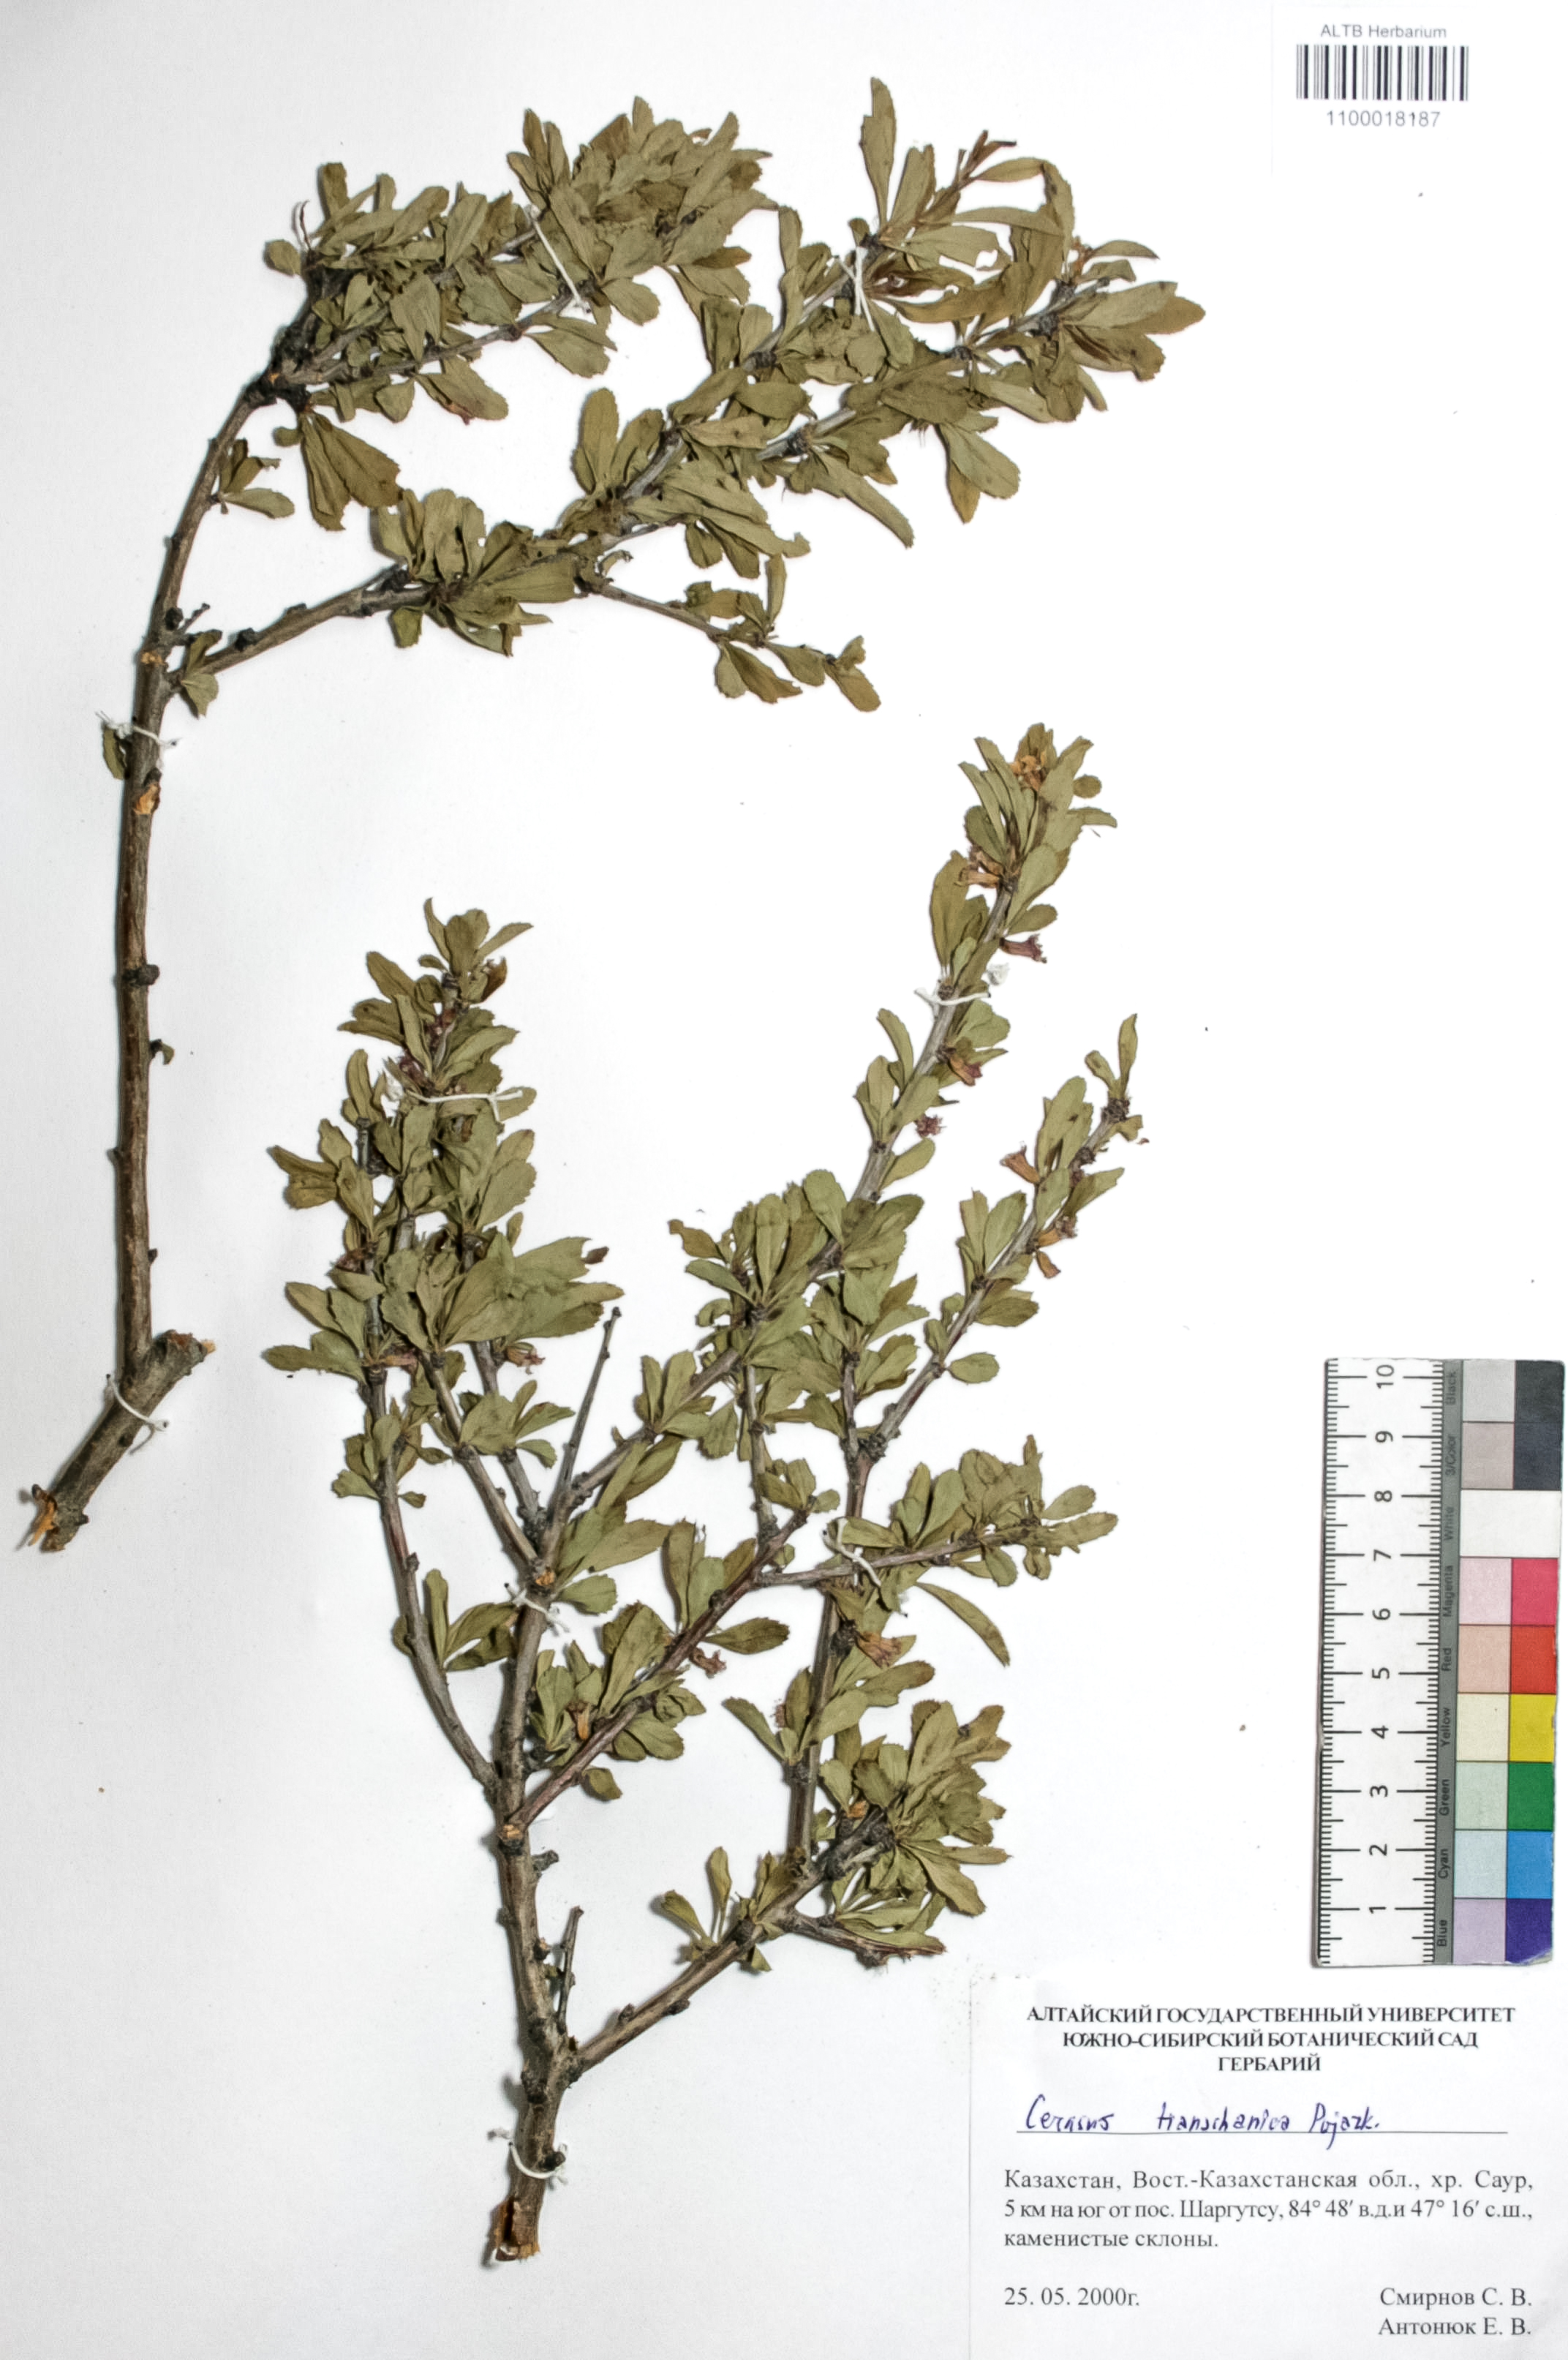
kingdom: Plantae
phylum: Tracheophyta
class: Magnoliopsida
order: Rosales
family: Rosaceae
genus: Prunus
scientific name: Prunus griffithii
